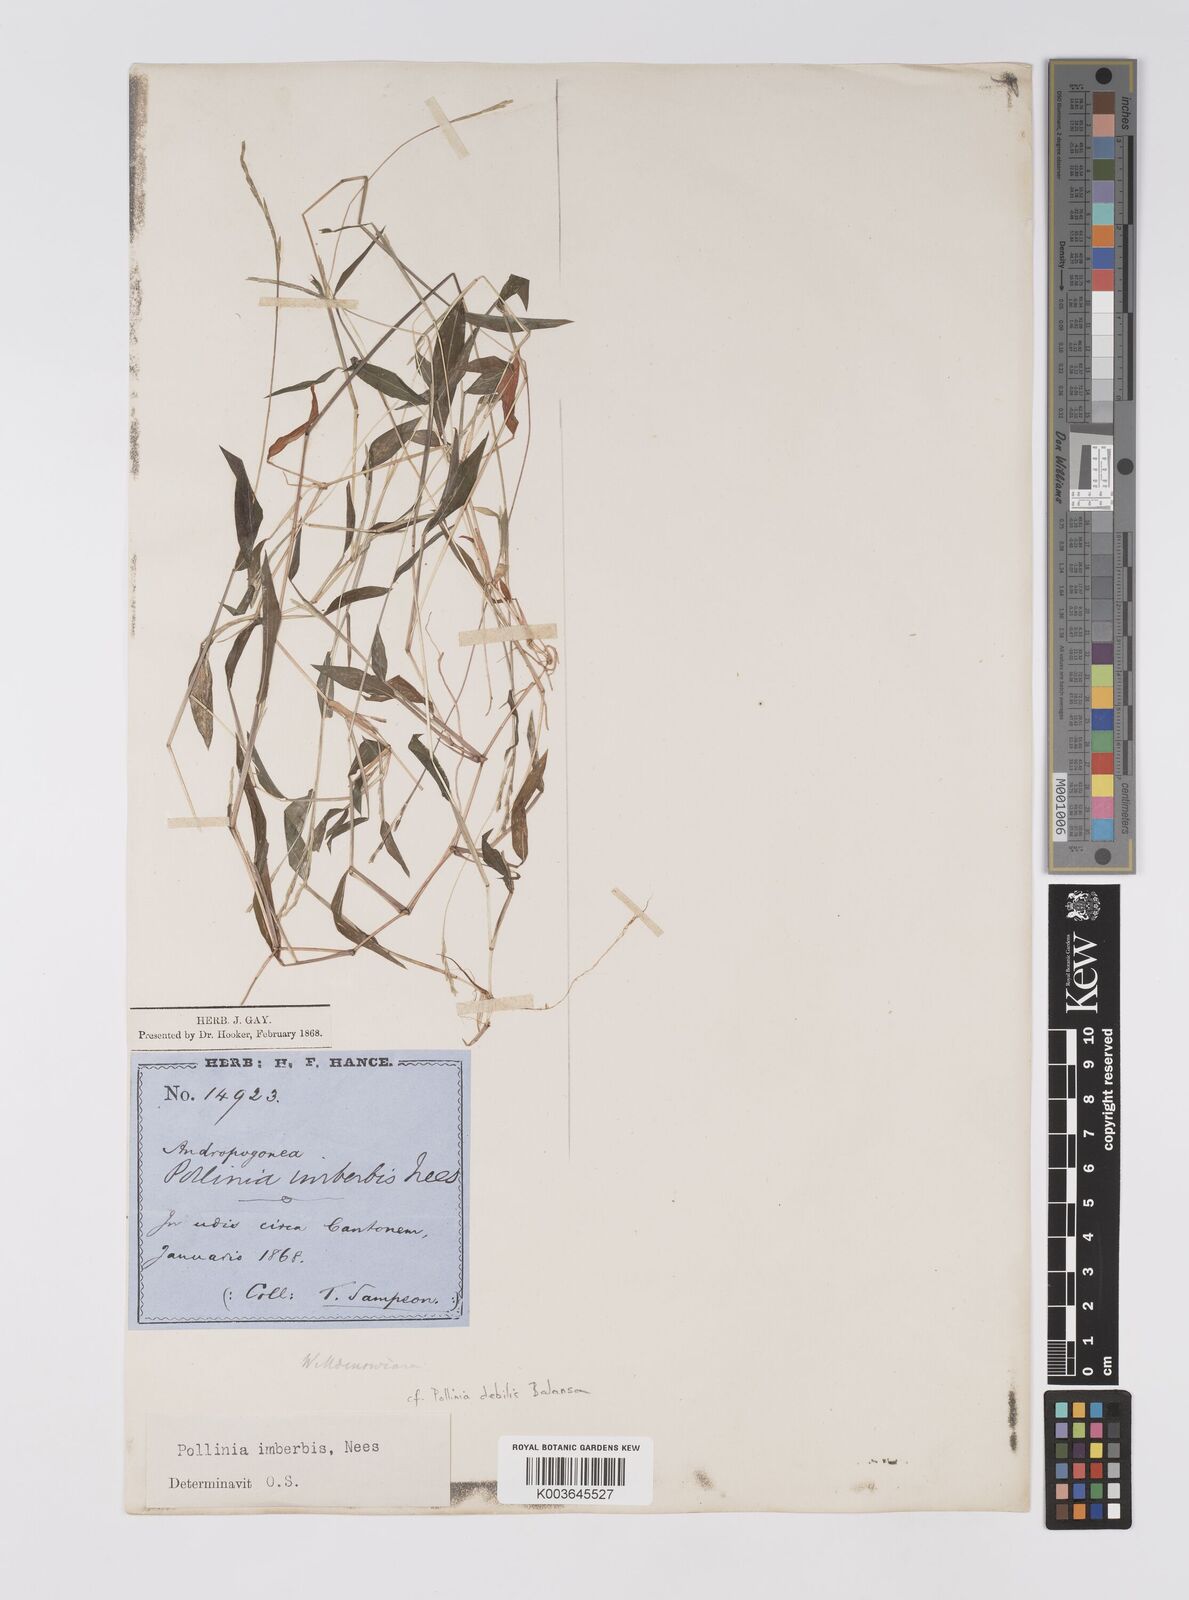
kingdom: Plantae
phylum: Tracheophyta
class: Liliopsida
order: Poales
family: Poaceae
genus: Microstegium
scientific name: Microstegium vimineum
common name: Japanese stiltgrass
